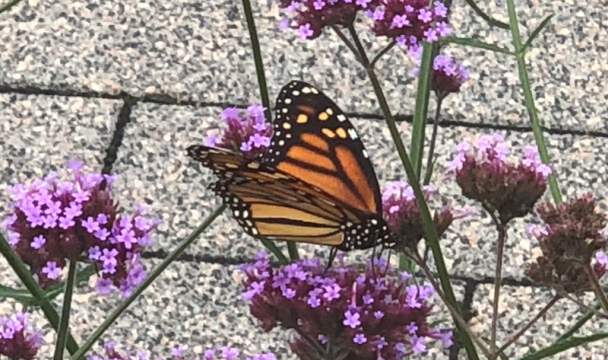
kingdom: Animalia
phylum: Arthropoda
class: Insecta
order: Lepidoptera
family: Nymphalidae
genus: Danaus
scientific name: Danaus plexippus
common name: Monarch
